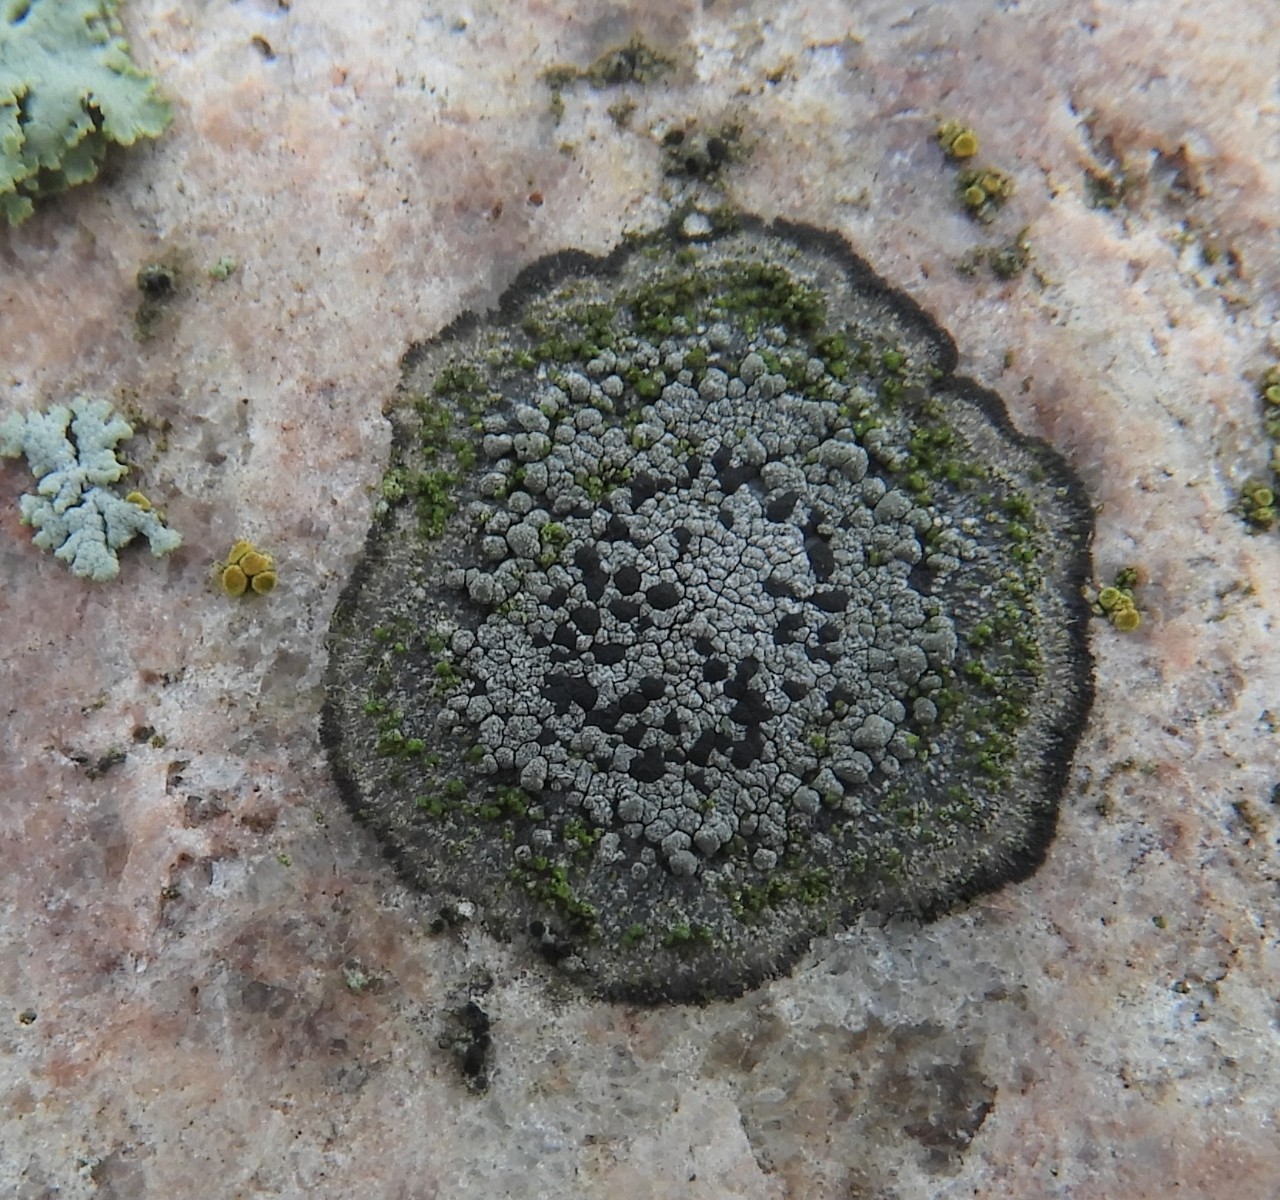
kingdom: Fungi
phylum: Ascomycota
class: Lecanoromycetes
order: Rhizocarpales
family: Rhizocarpaceae
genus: Rhizocarpon
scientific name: Rhizocarpon
